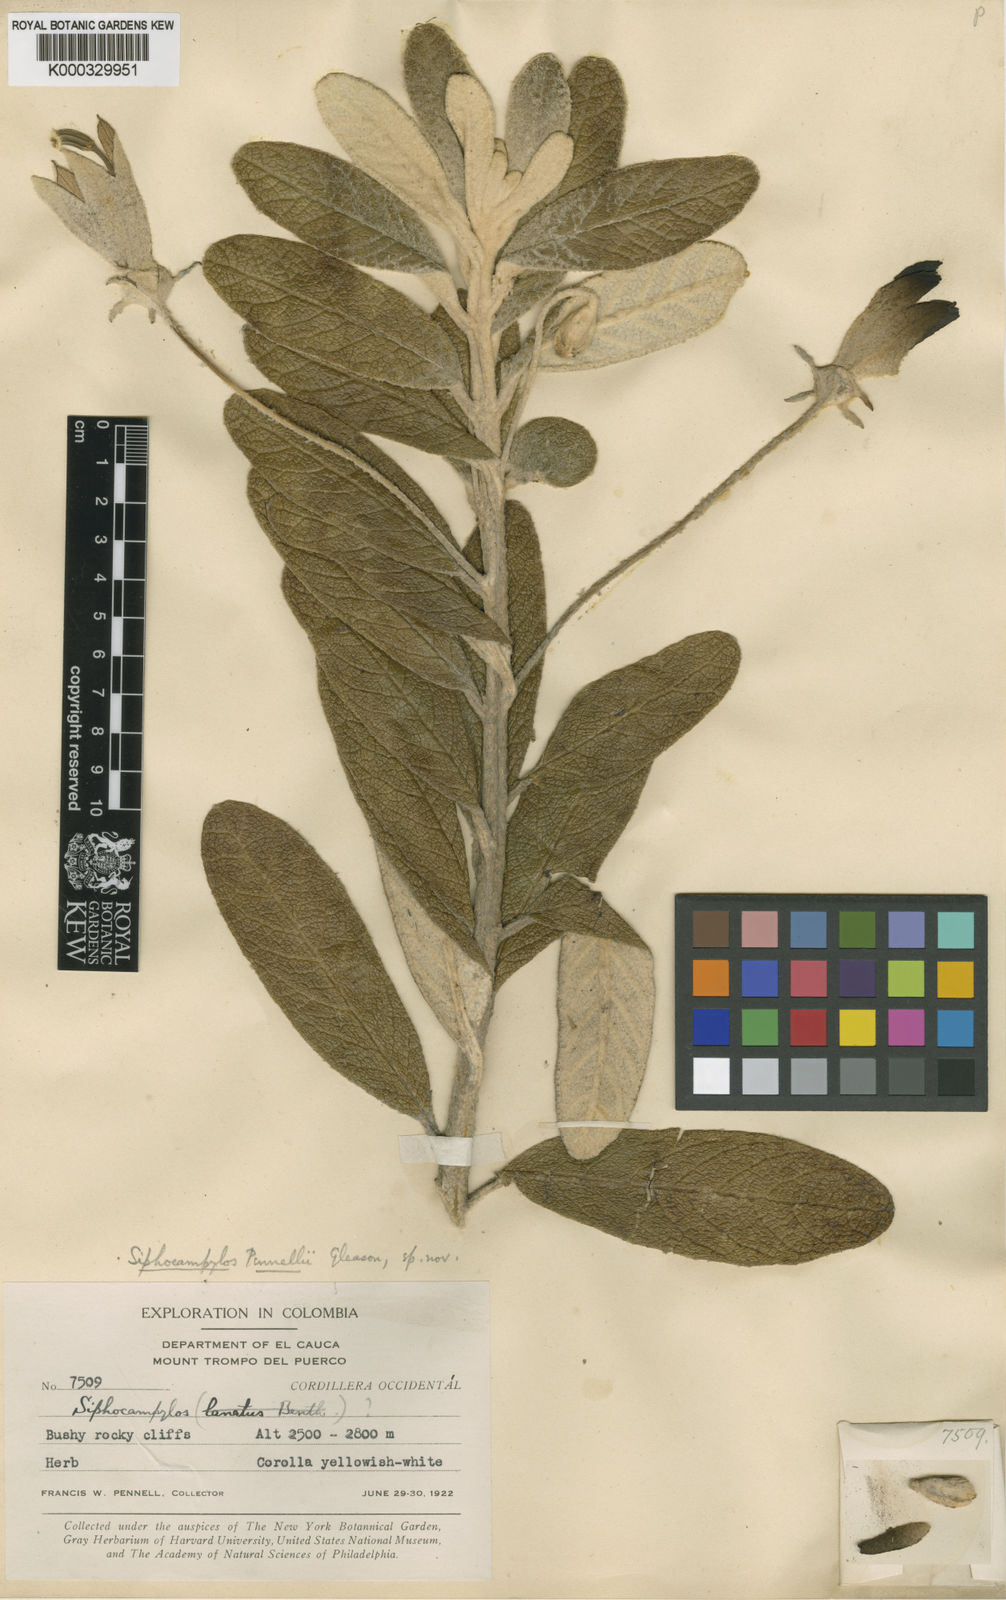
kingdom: Plantae
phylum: Tracheophyta
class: Magnoliopsida
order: Asterales
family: Campanulaceae
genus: Siphocampylus
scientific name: Siphocampylus niveus
